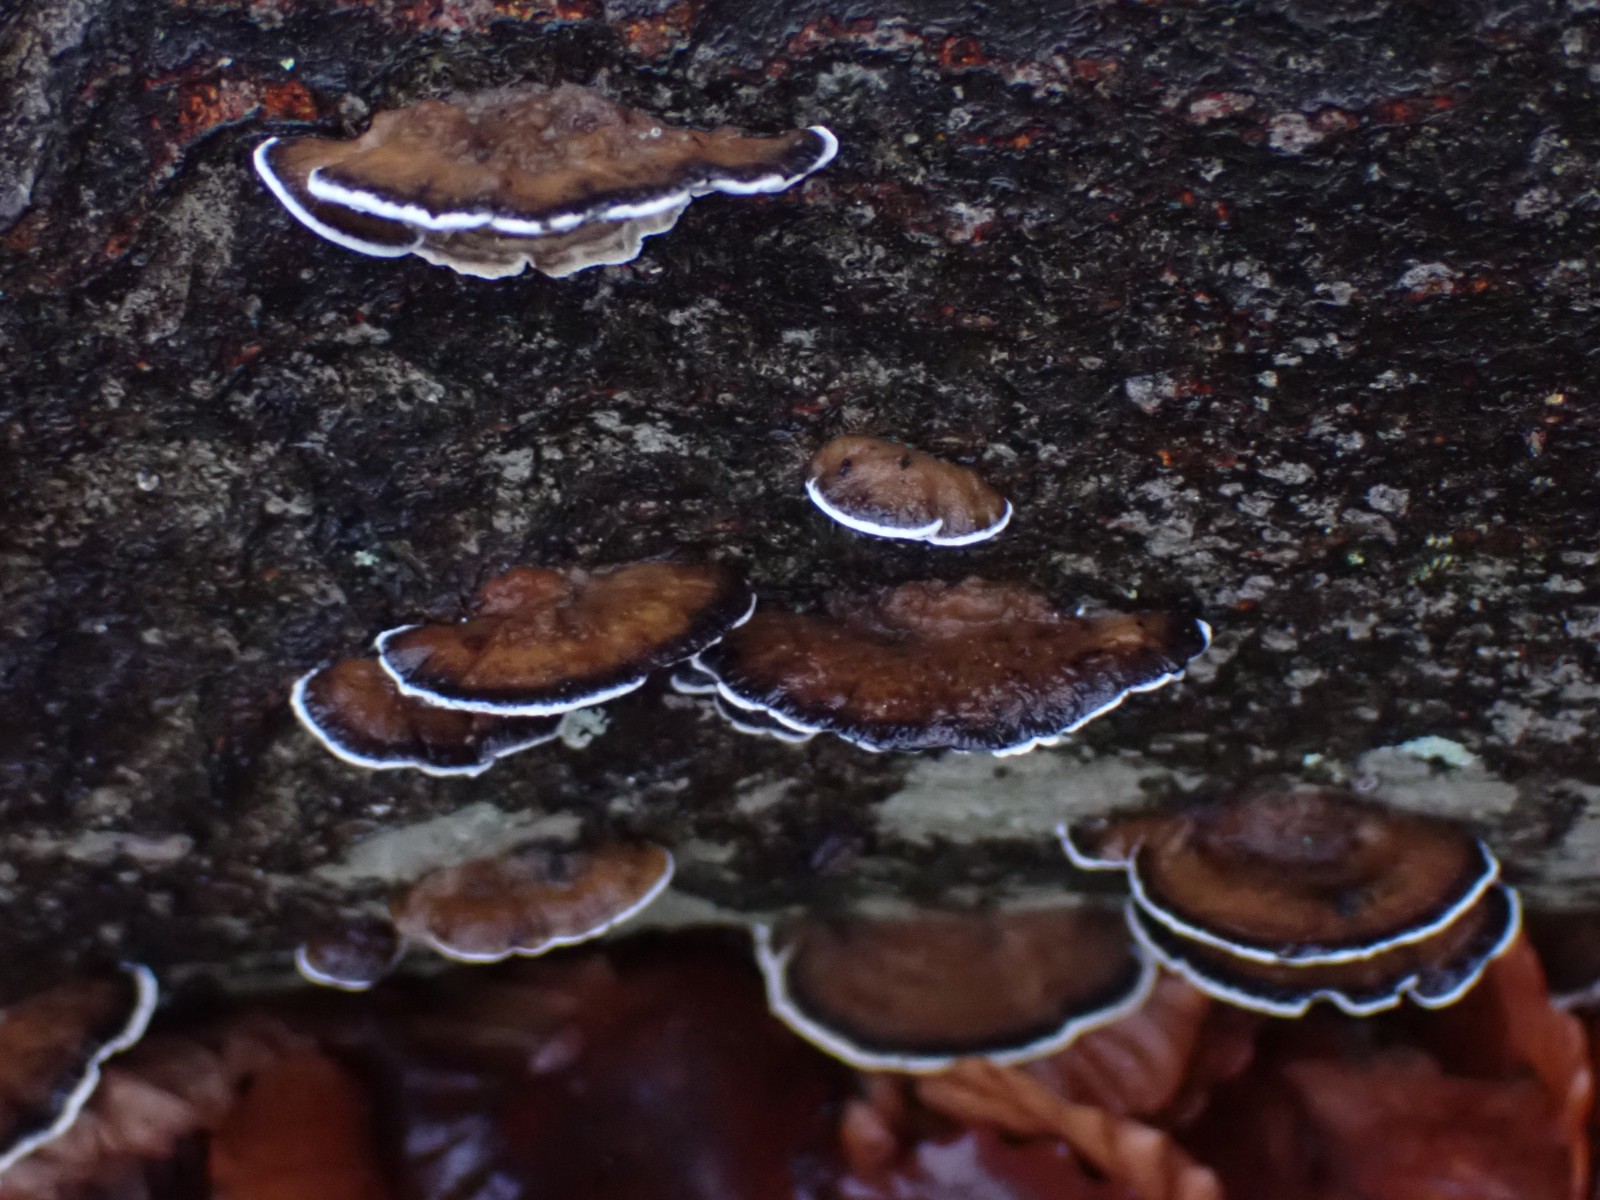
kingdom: Fungi
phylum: Basidiomycota
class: Agaricomycetes
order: Polyporales
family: Phanerochaetaceae
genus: Bjerkandera
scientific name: Bjerkandera adusta
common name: sveden sodporesvamp
